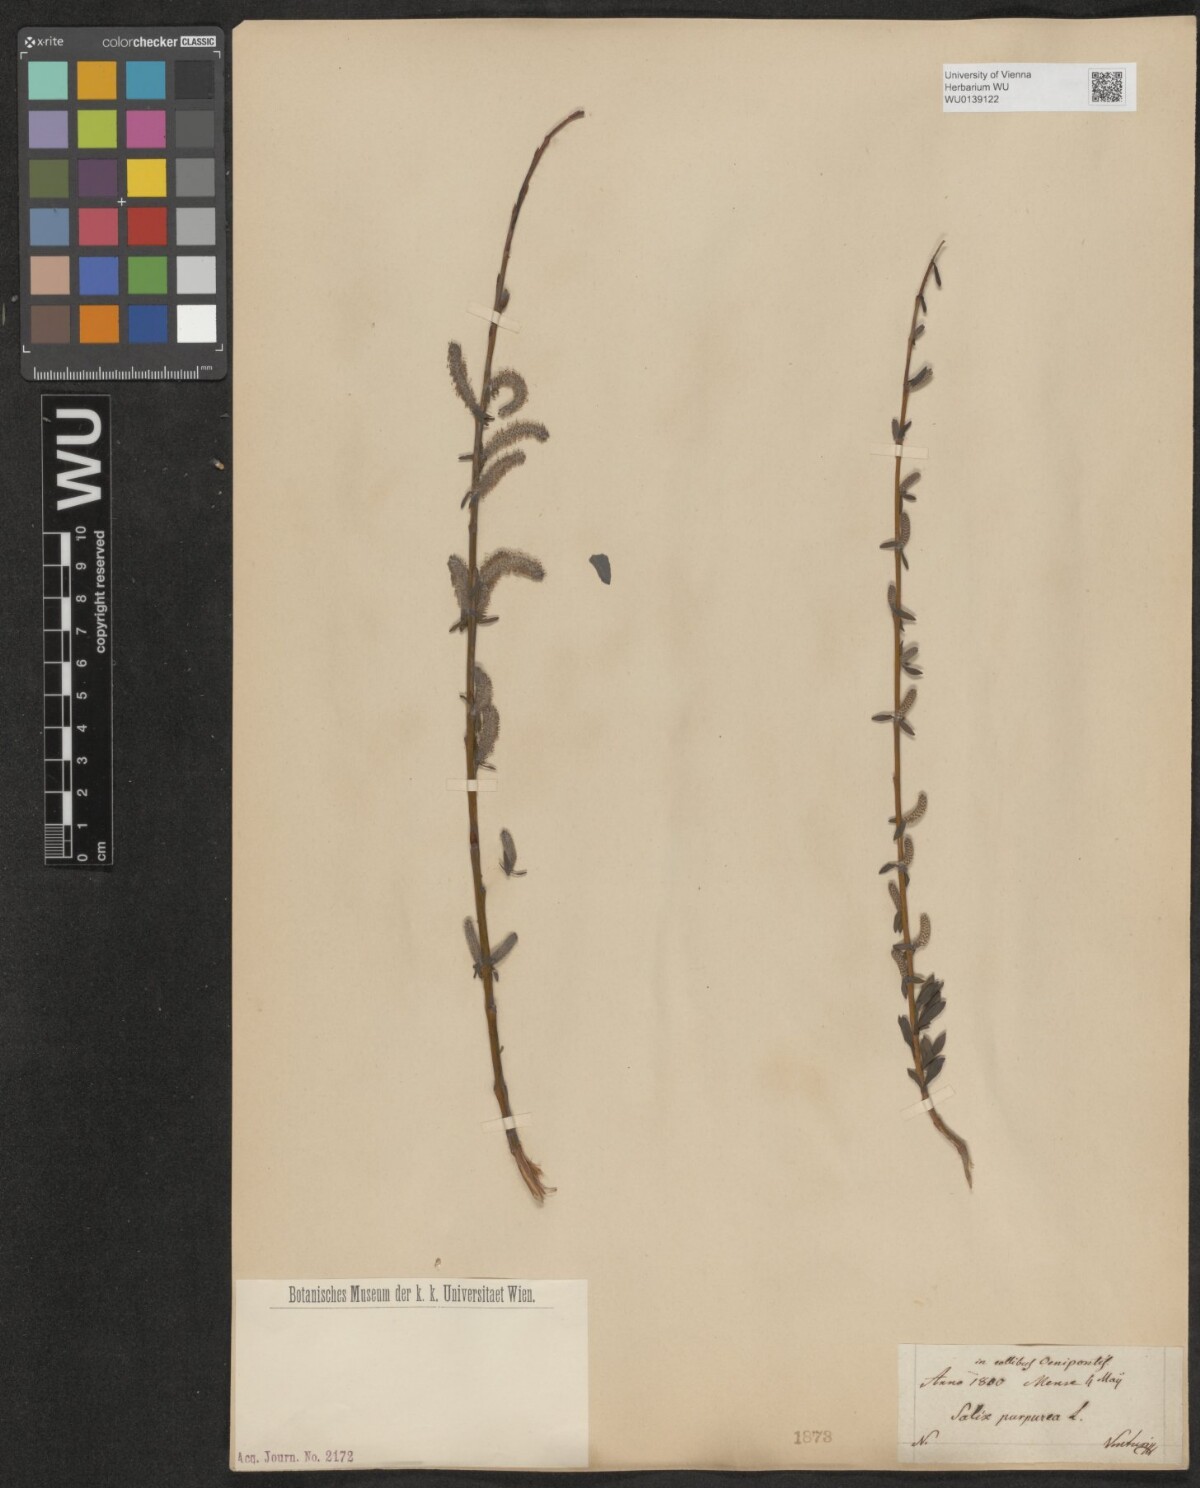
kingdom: Plantae
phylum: Tracheophyta
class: Magnoliopsida
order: Malpighiales
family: Salicaceae
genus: Salix
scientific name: Salix purpurea
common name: Purple willow
